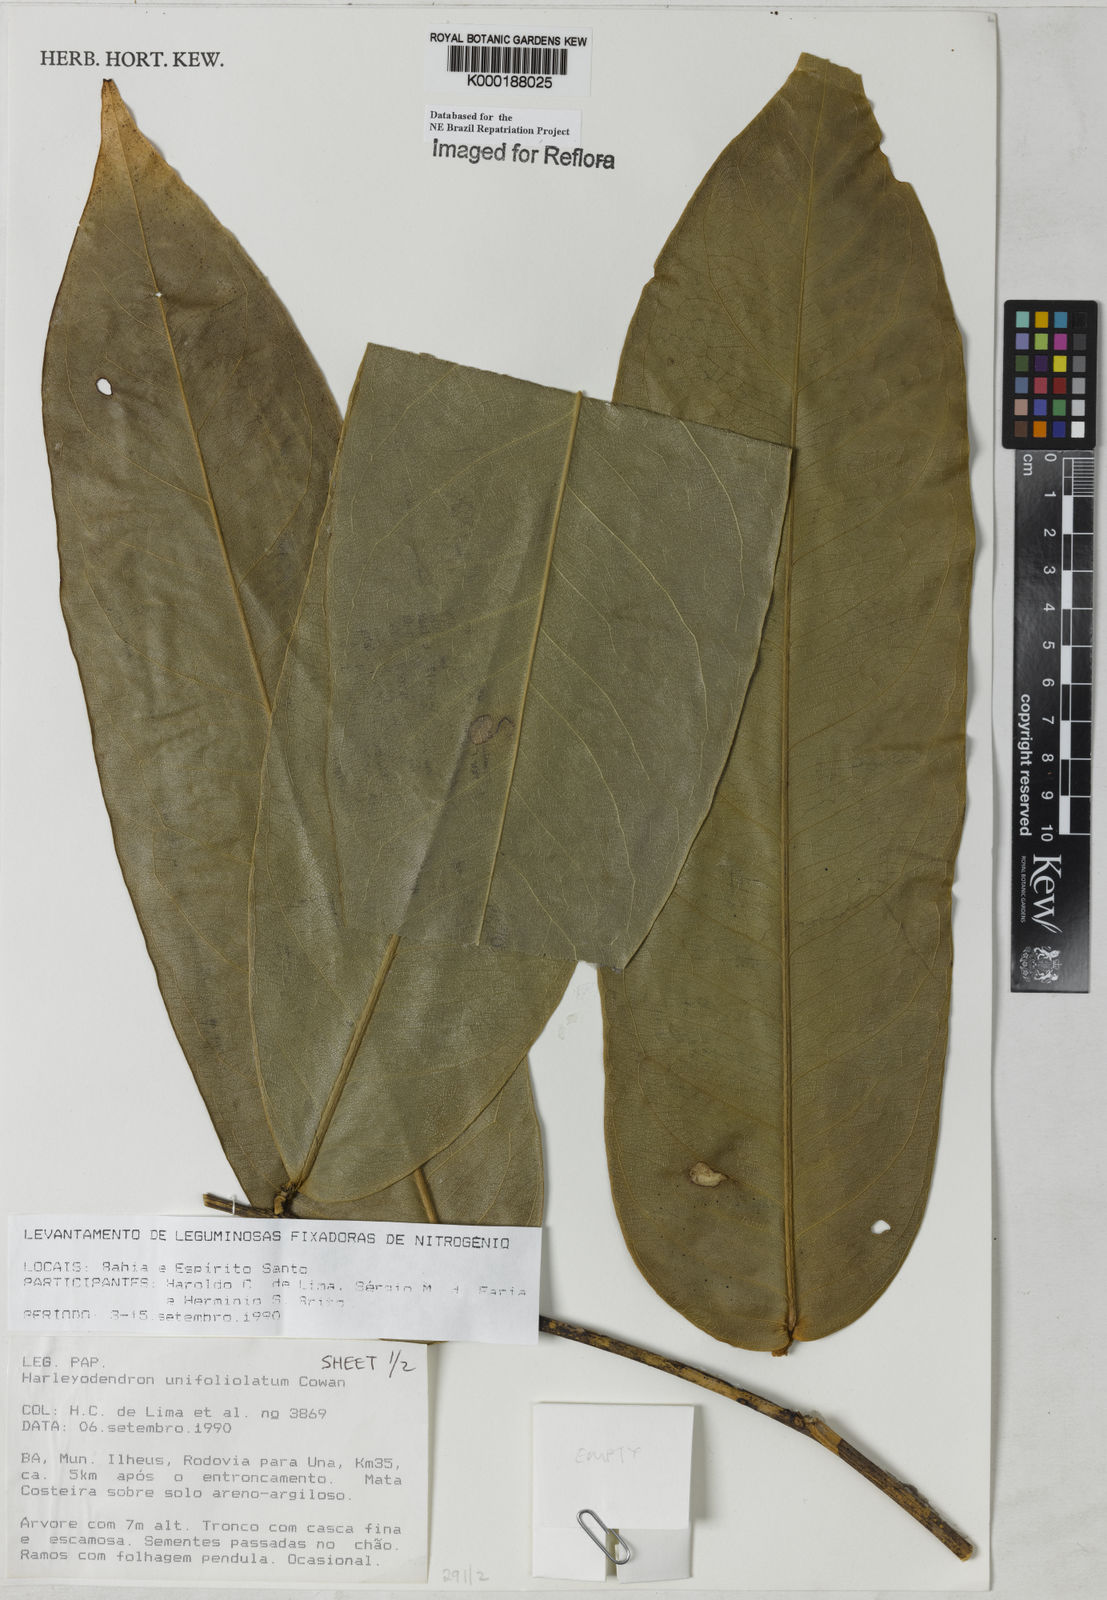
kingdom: Plantae
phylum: Tracheophyta
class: Magnoliopsida
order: Fabales
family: Fabaceae
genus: Harleyodendron
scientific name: Harleyodendron unifoliolatum
